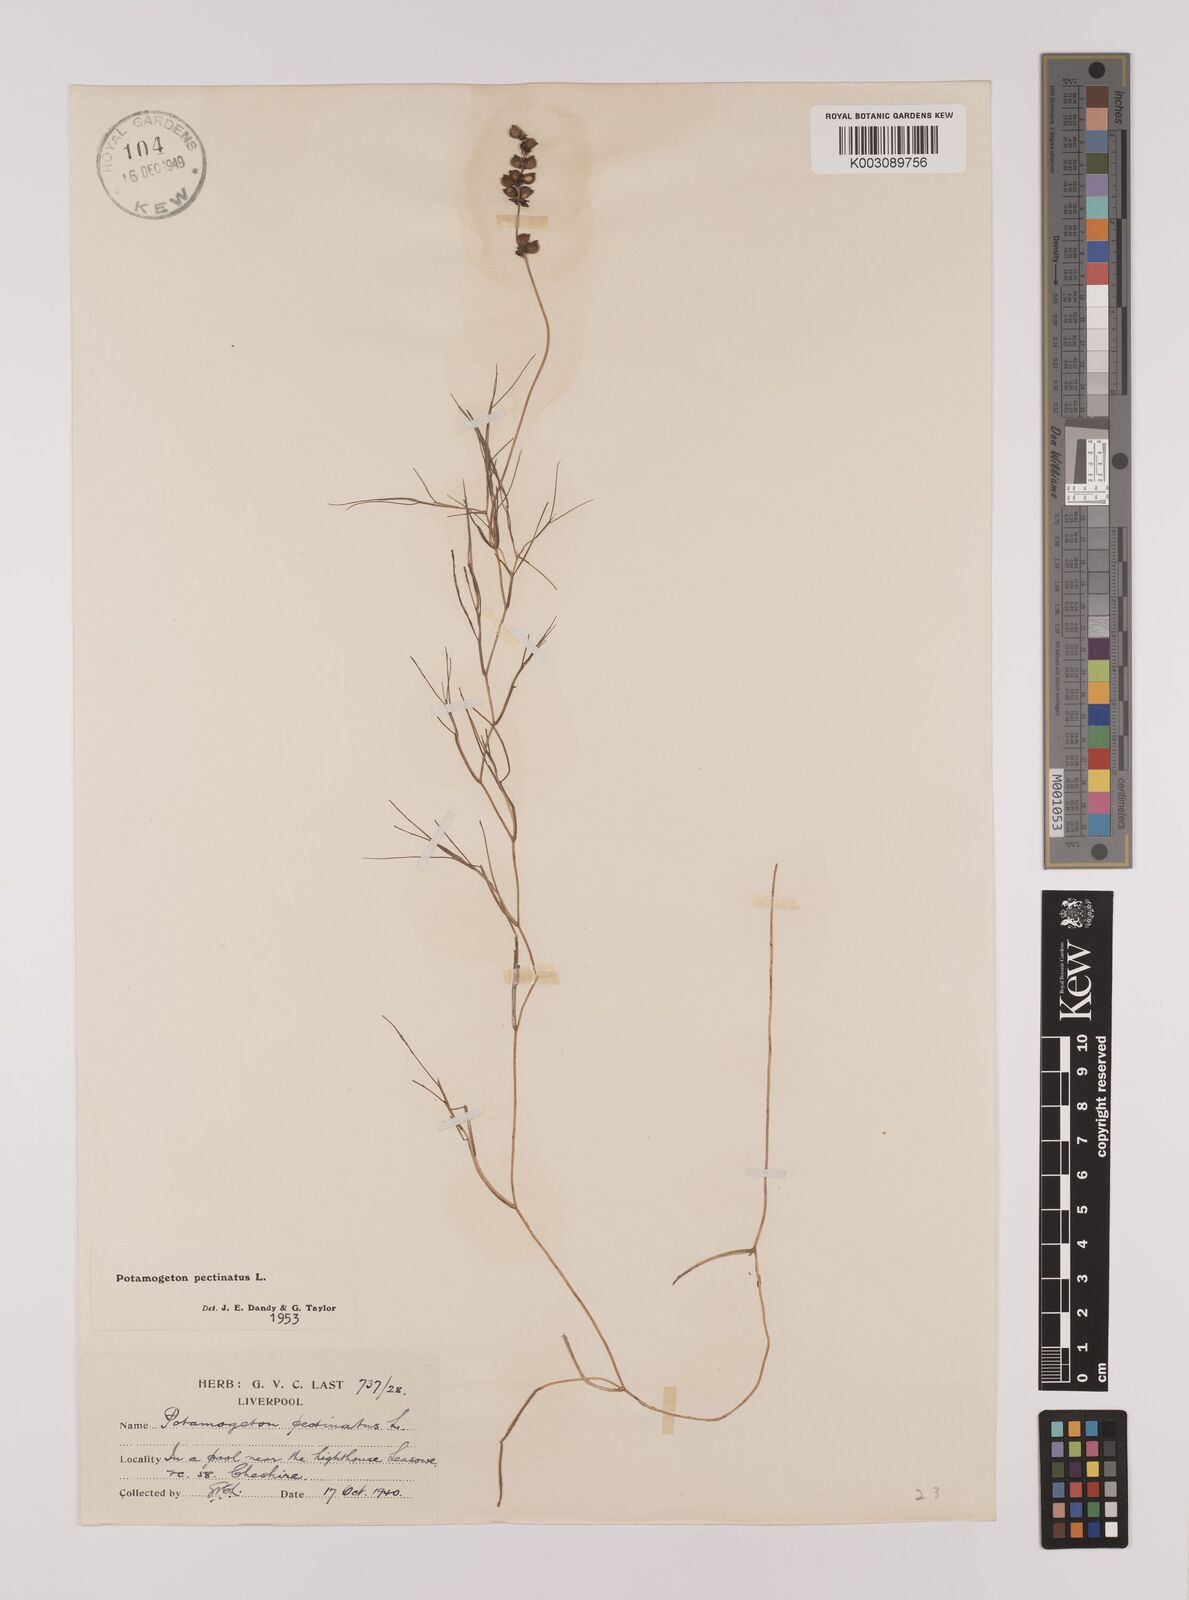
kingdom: Plantae
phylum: Tracheophyta
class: Liliopsida
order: Alismatales
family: Potamogetonaceae
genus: Stuckenia
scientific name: Stuckenia pectinata
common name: Sago pondweed
